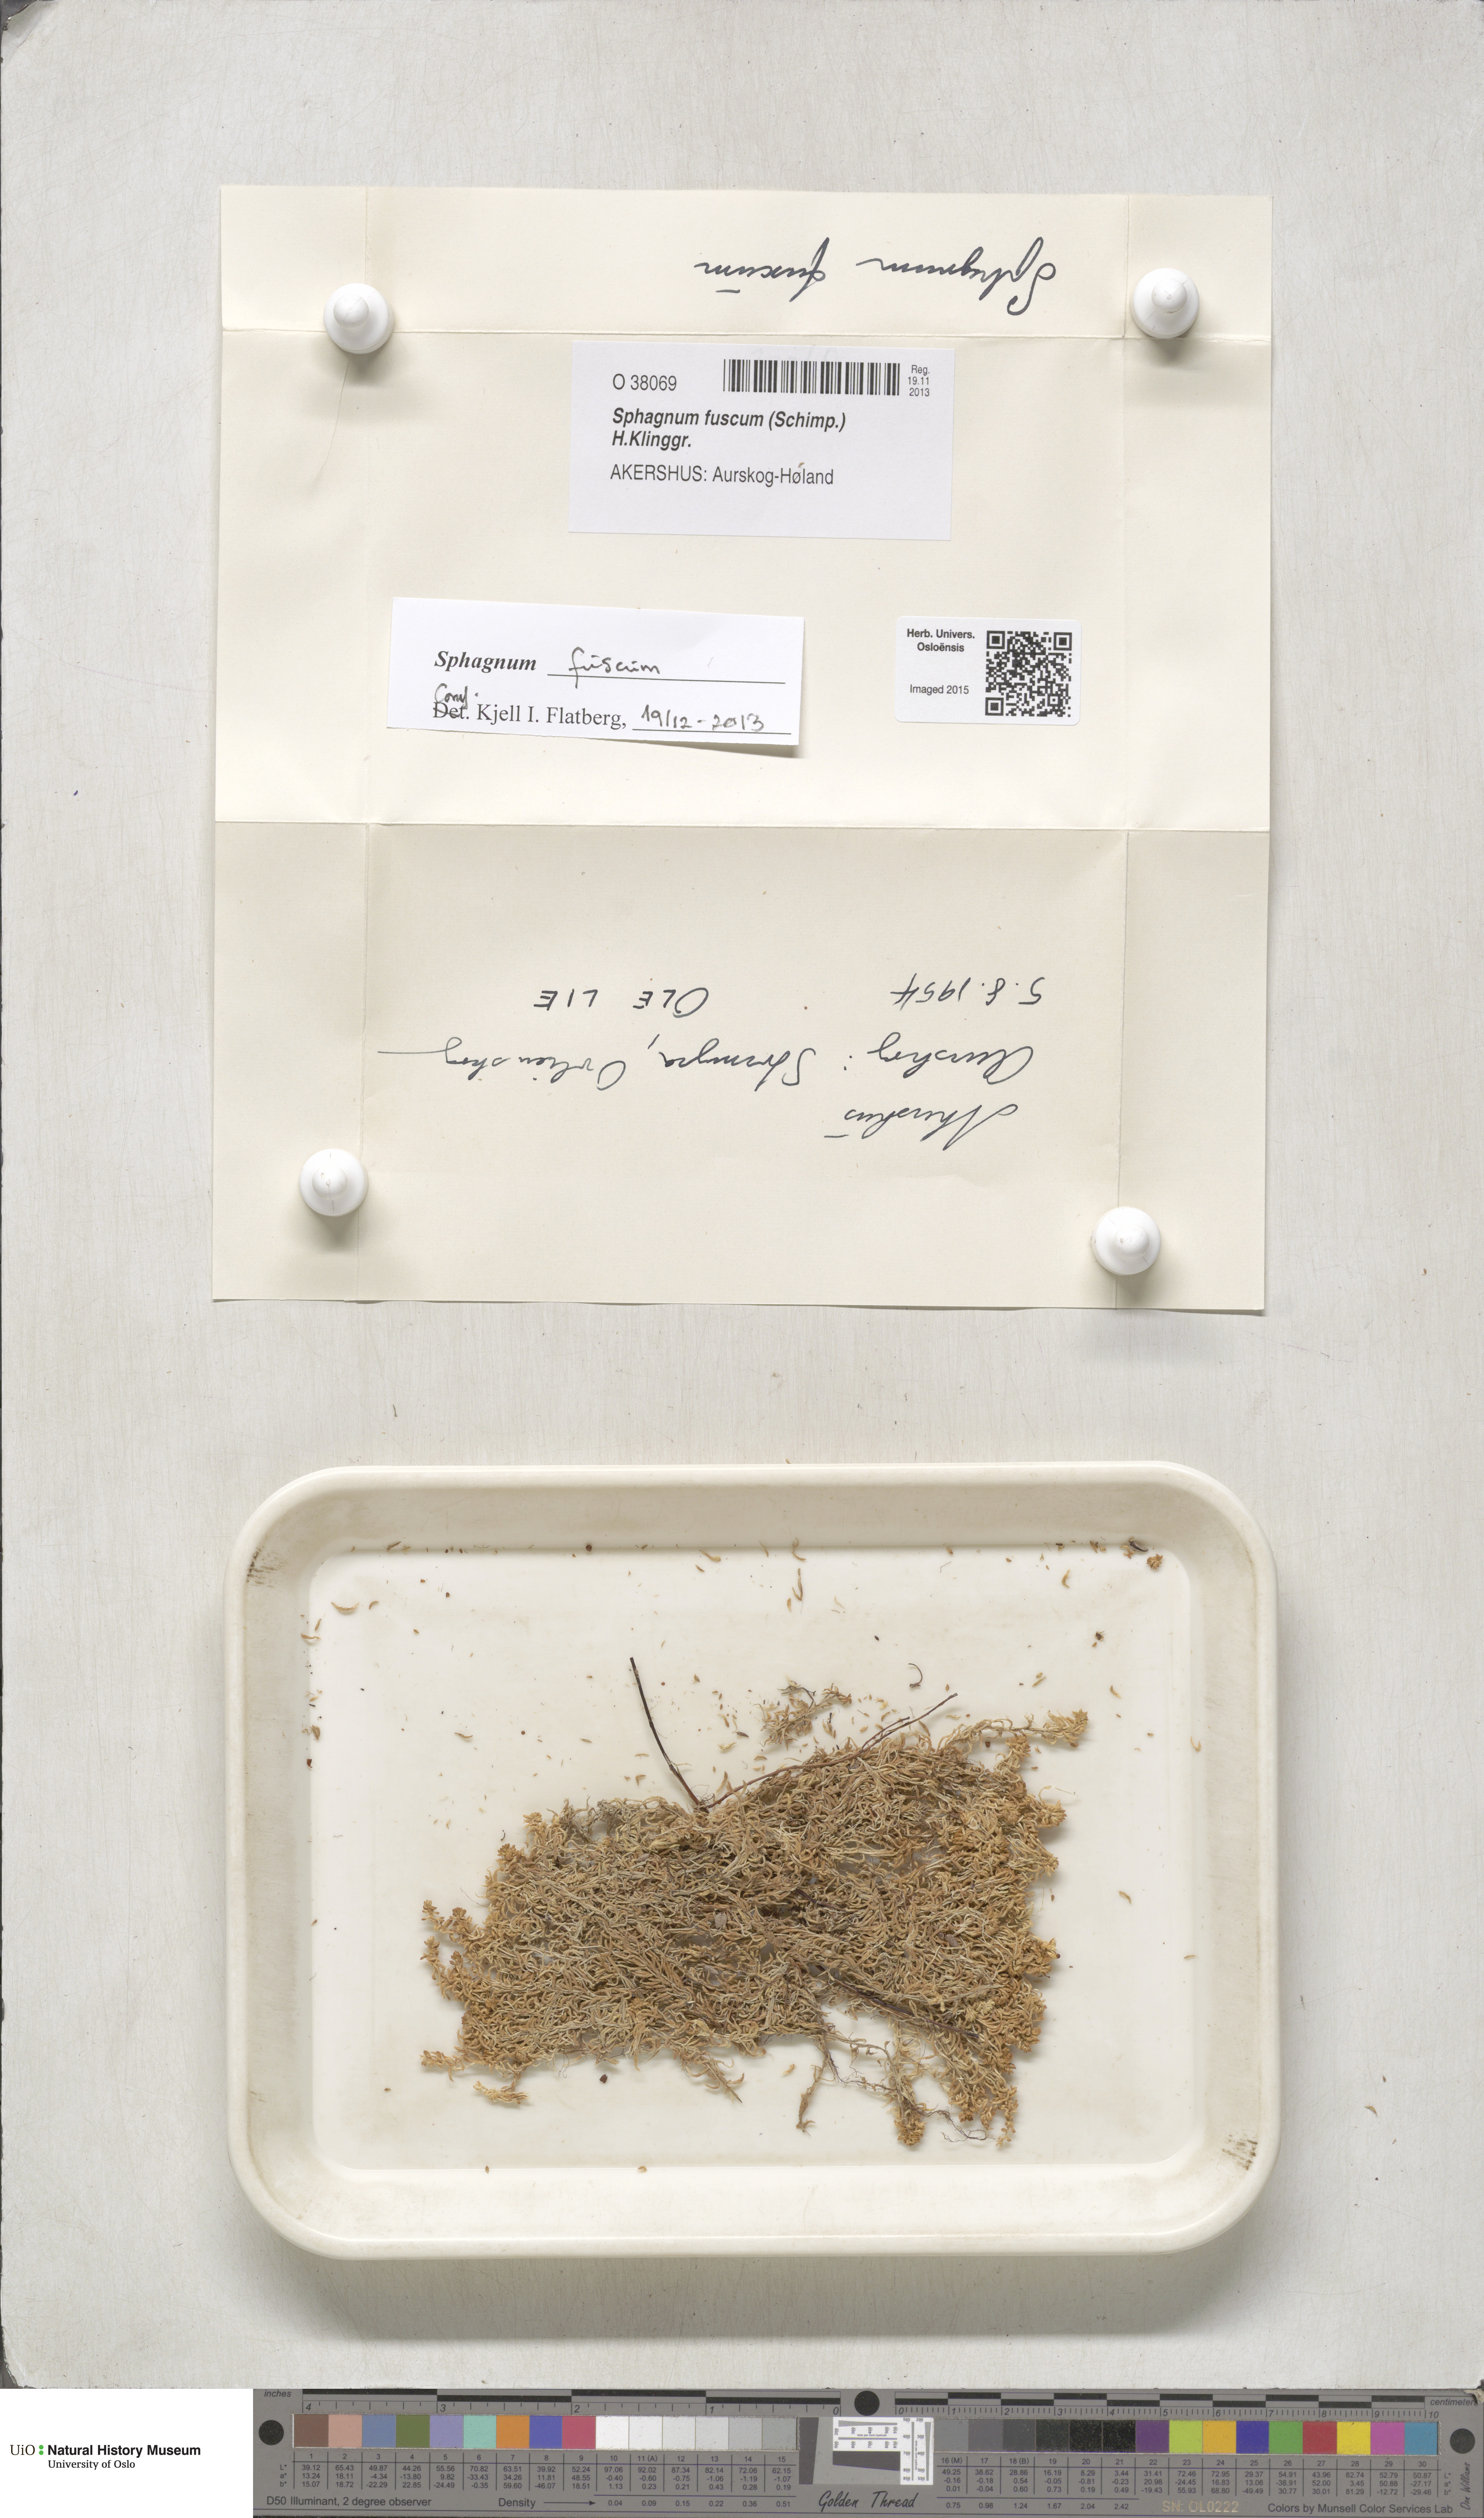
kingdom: Plantae
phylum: Bryophyta
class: Sphagnopsida
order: Sphagnales
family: Sphagnaceae
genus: Sphagnum
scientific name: Sphagnum fuscum
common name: Brown peat moss
